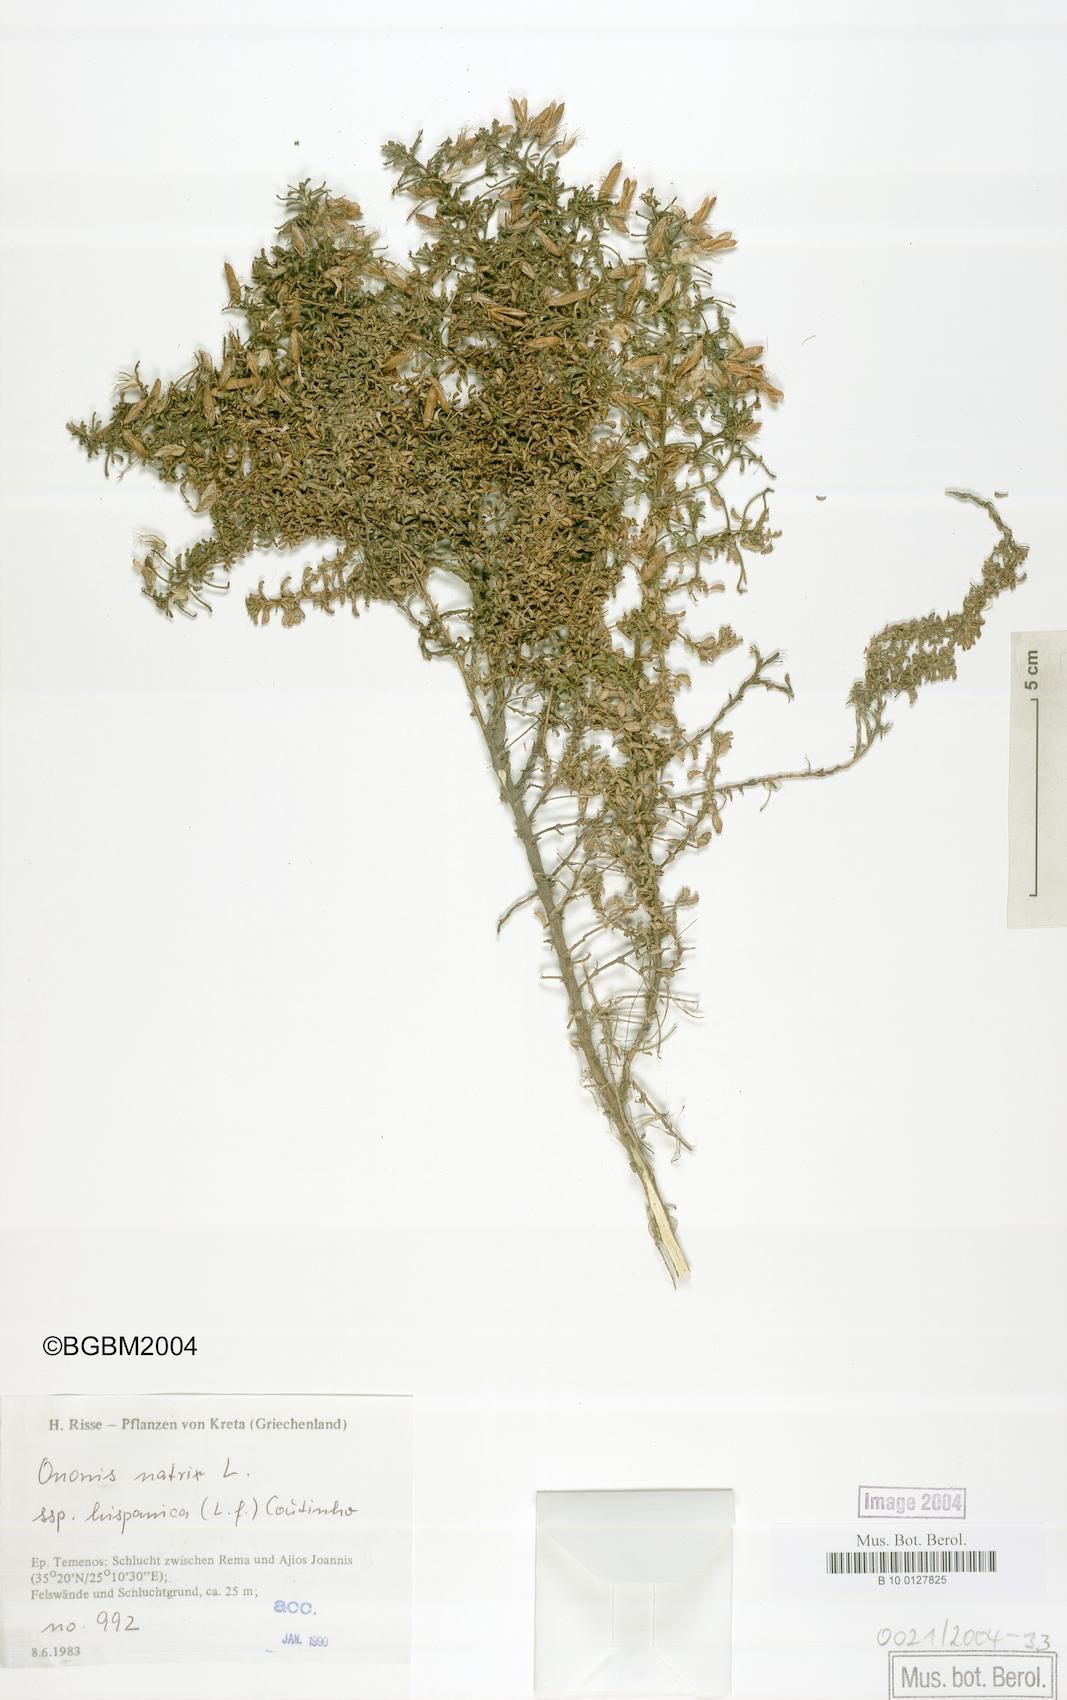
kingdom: Plantae
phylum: Tracheophyta
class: Magnoliopsida
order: Fabales
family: Fabaceae
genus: Ononis
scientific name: Ononis natrix
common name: Yellow restharrow
